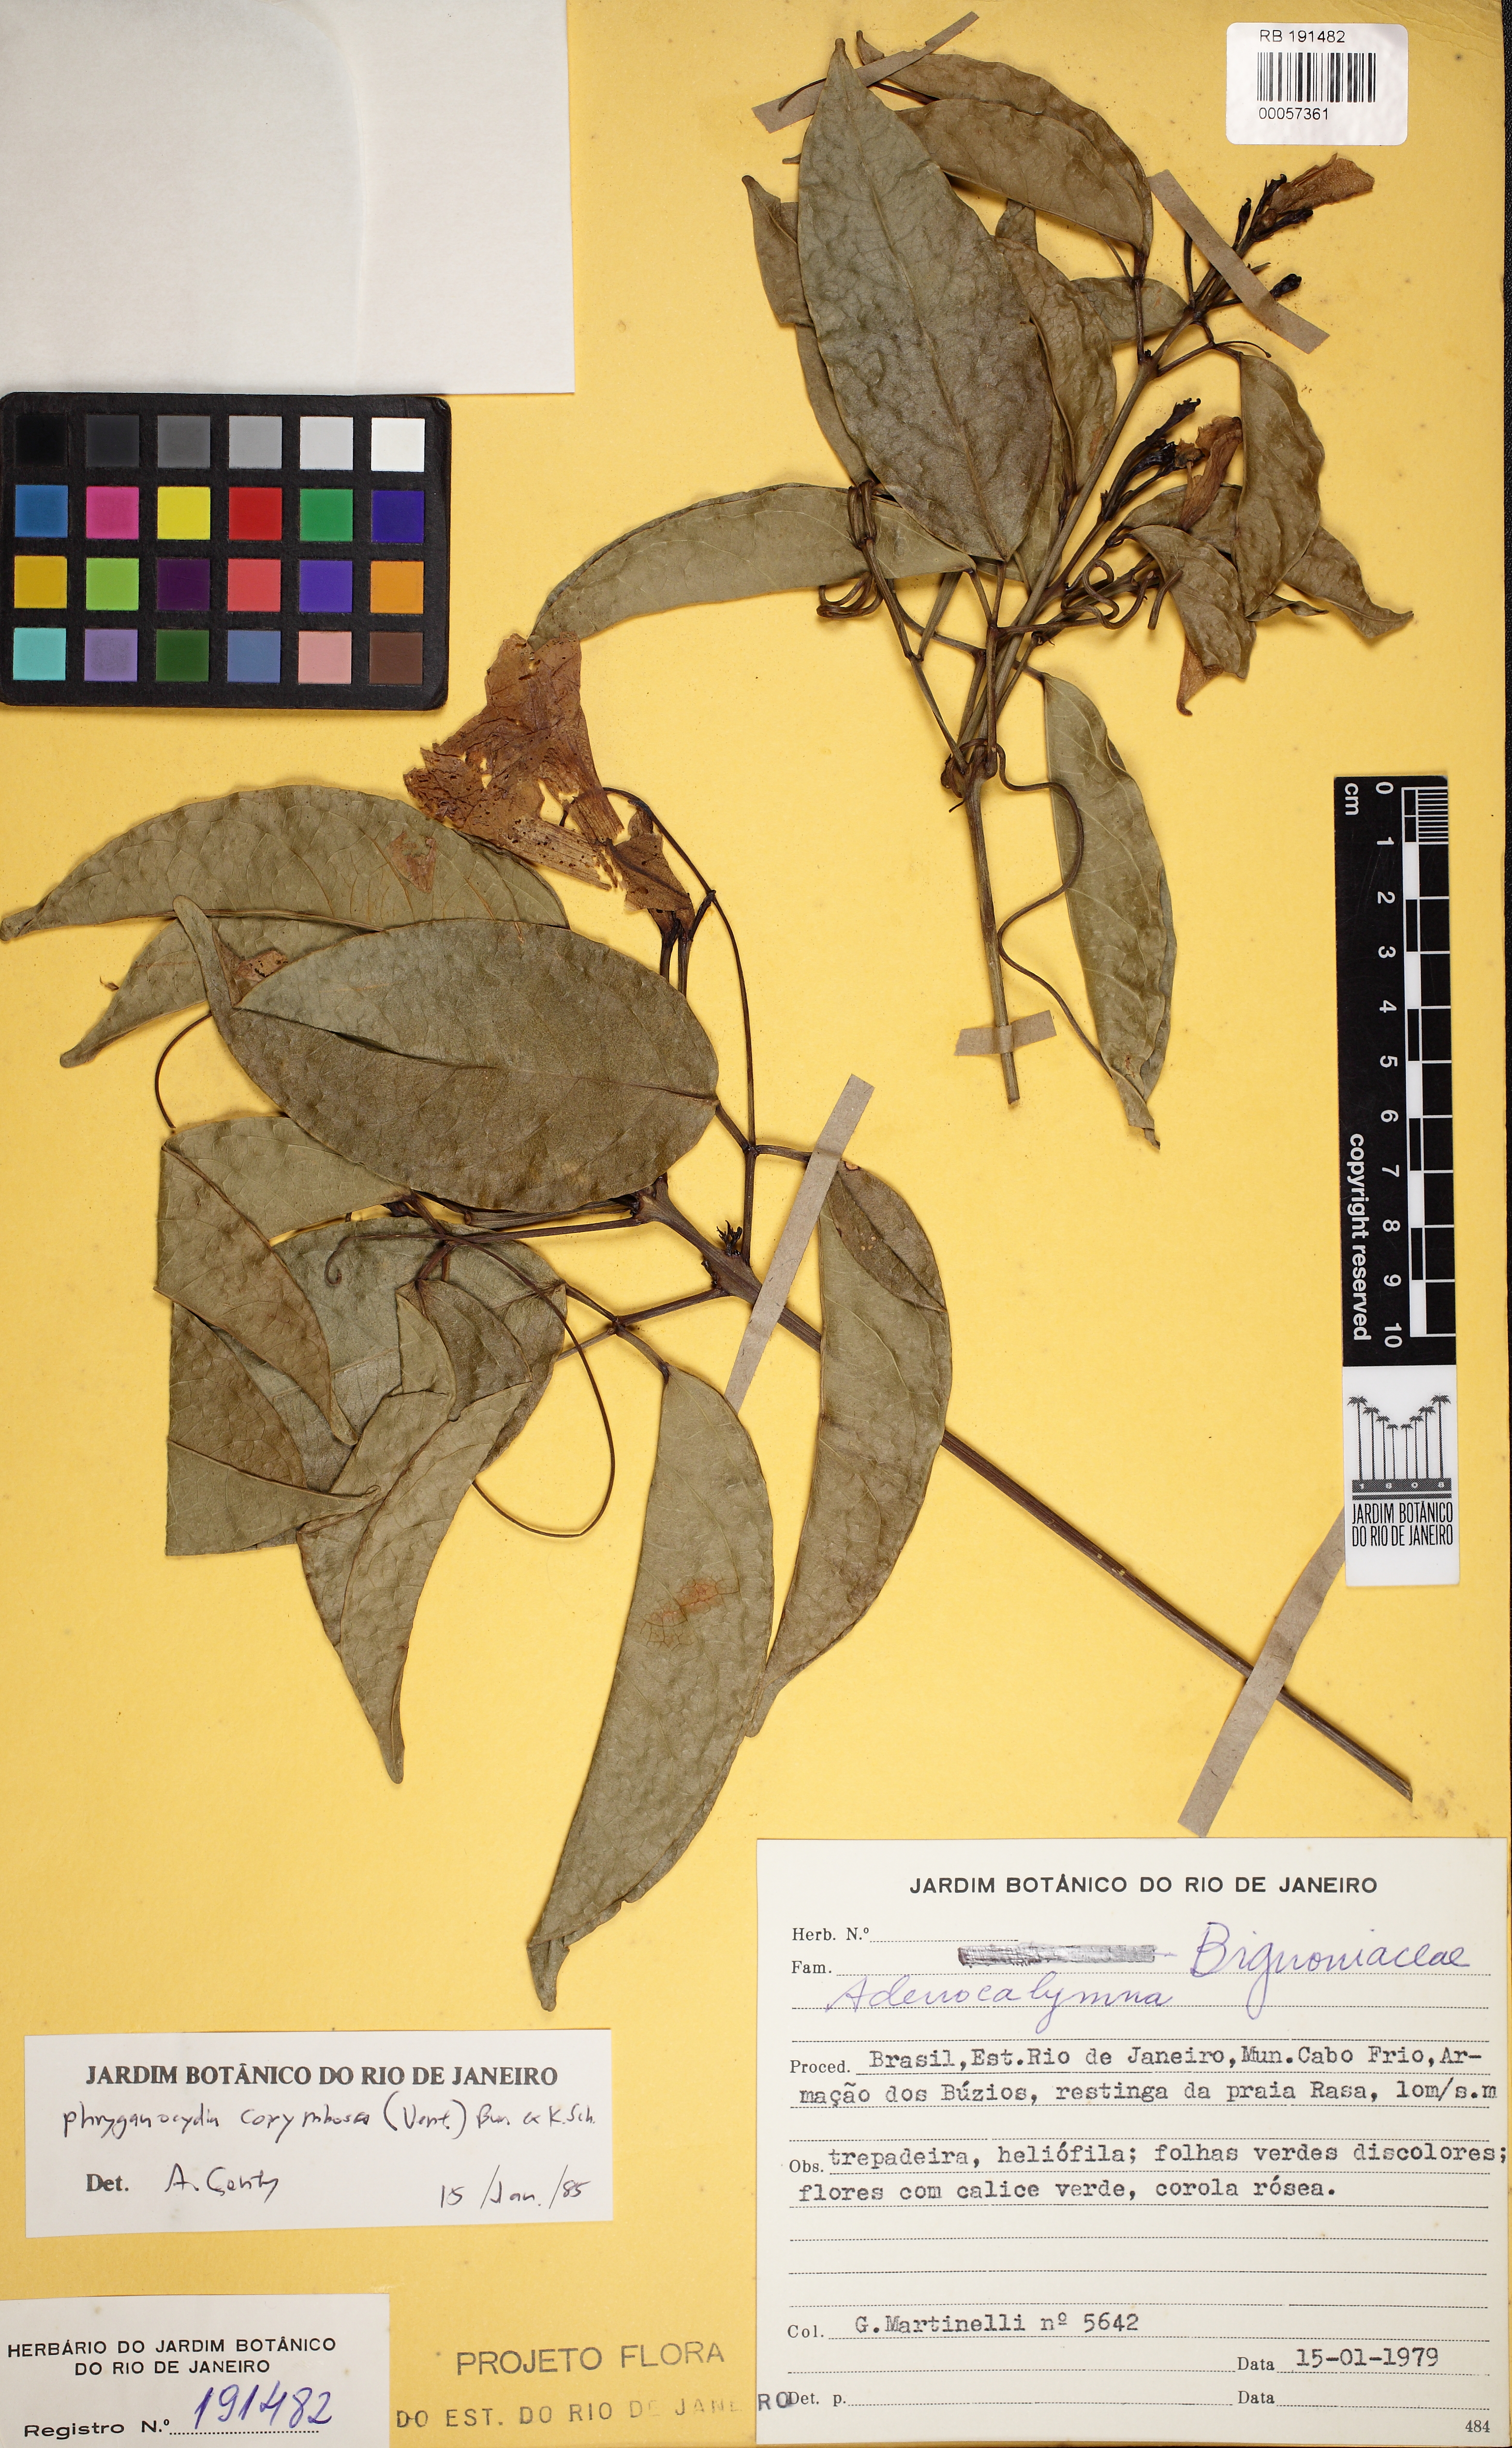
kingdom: Plantae
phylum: Tracheophyta
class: Magnoliopsida
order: Lamiales
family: Bignoniaceae
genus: Bignonia
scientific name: Bignonia corymbosa
